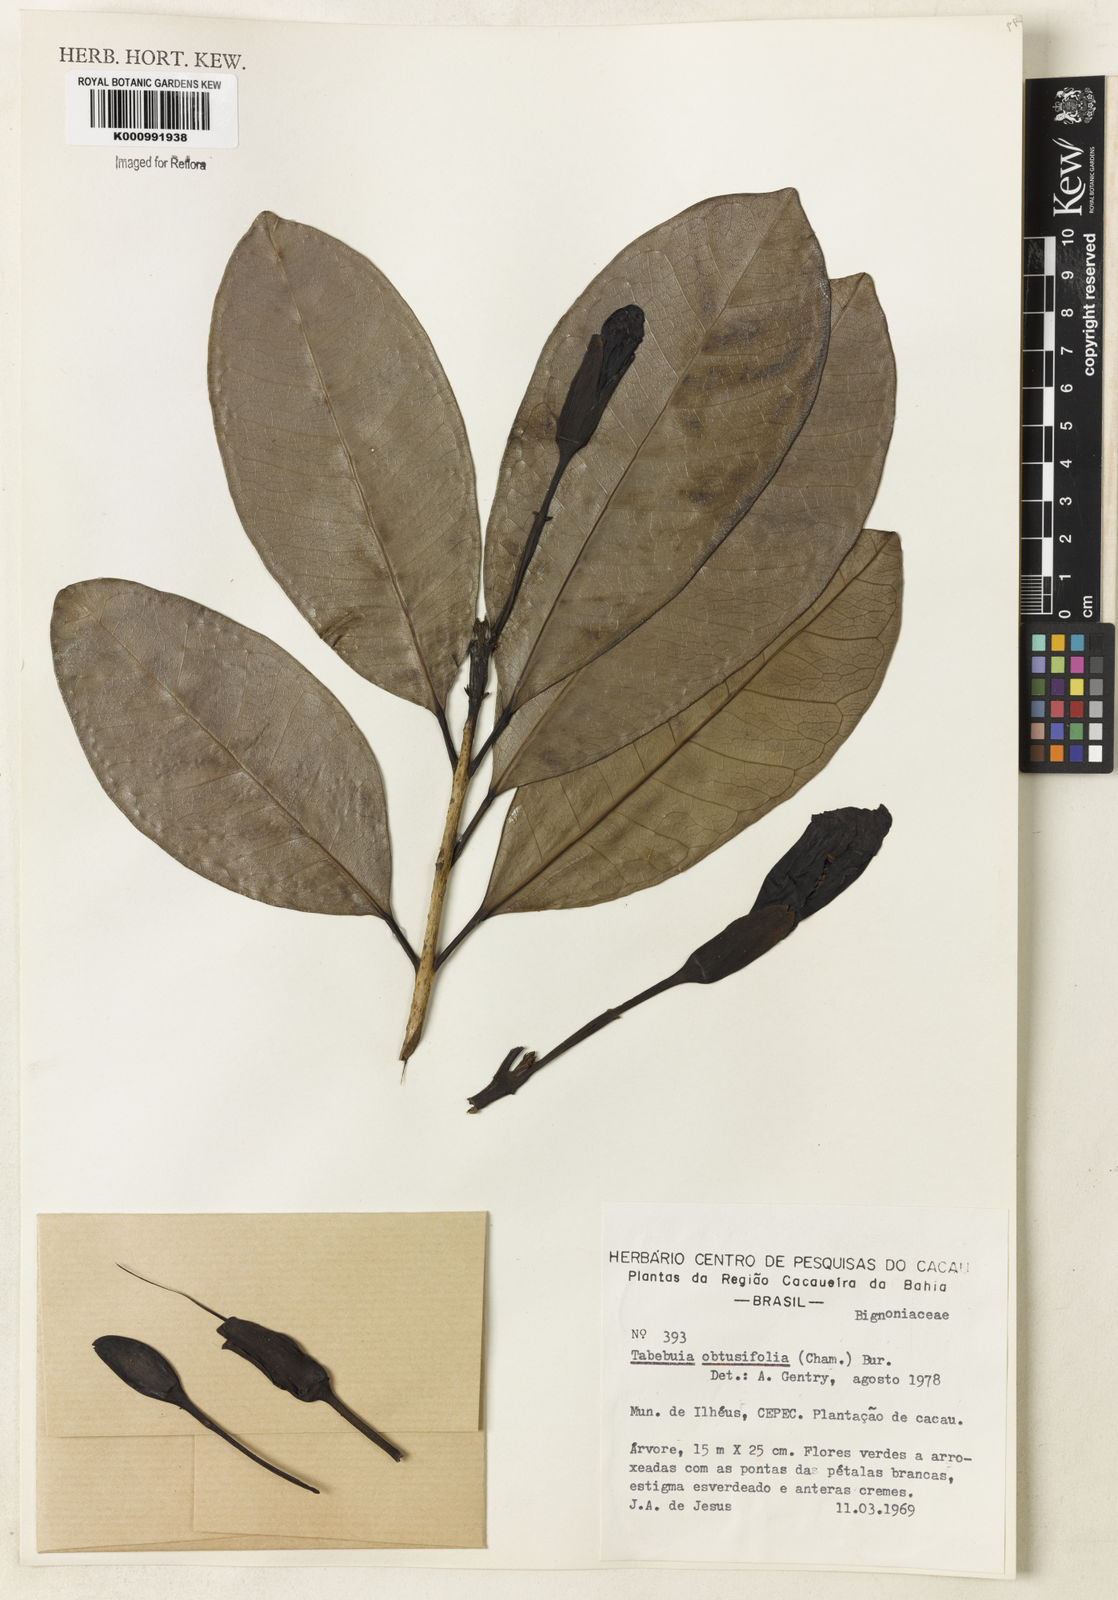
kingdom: Plantae
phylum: Tracheophyta
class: Magnoliopsida
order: Lamiales
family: Bignoniaceae
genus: Tabebuia
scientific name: Tabebuia obtusifolia
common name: Guadeloupe trumpet-tree
